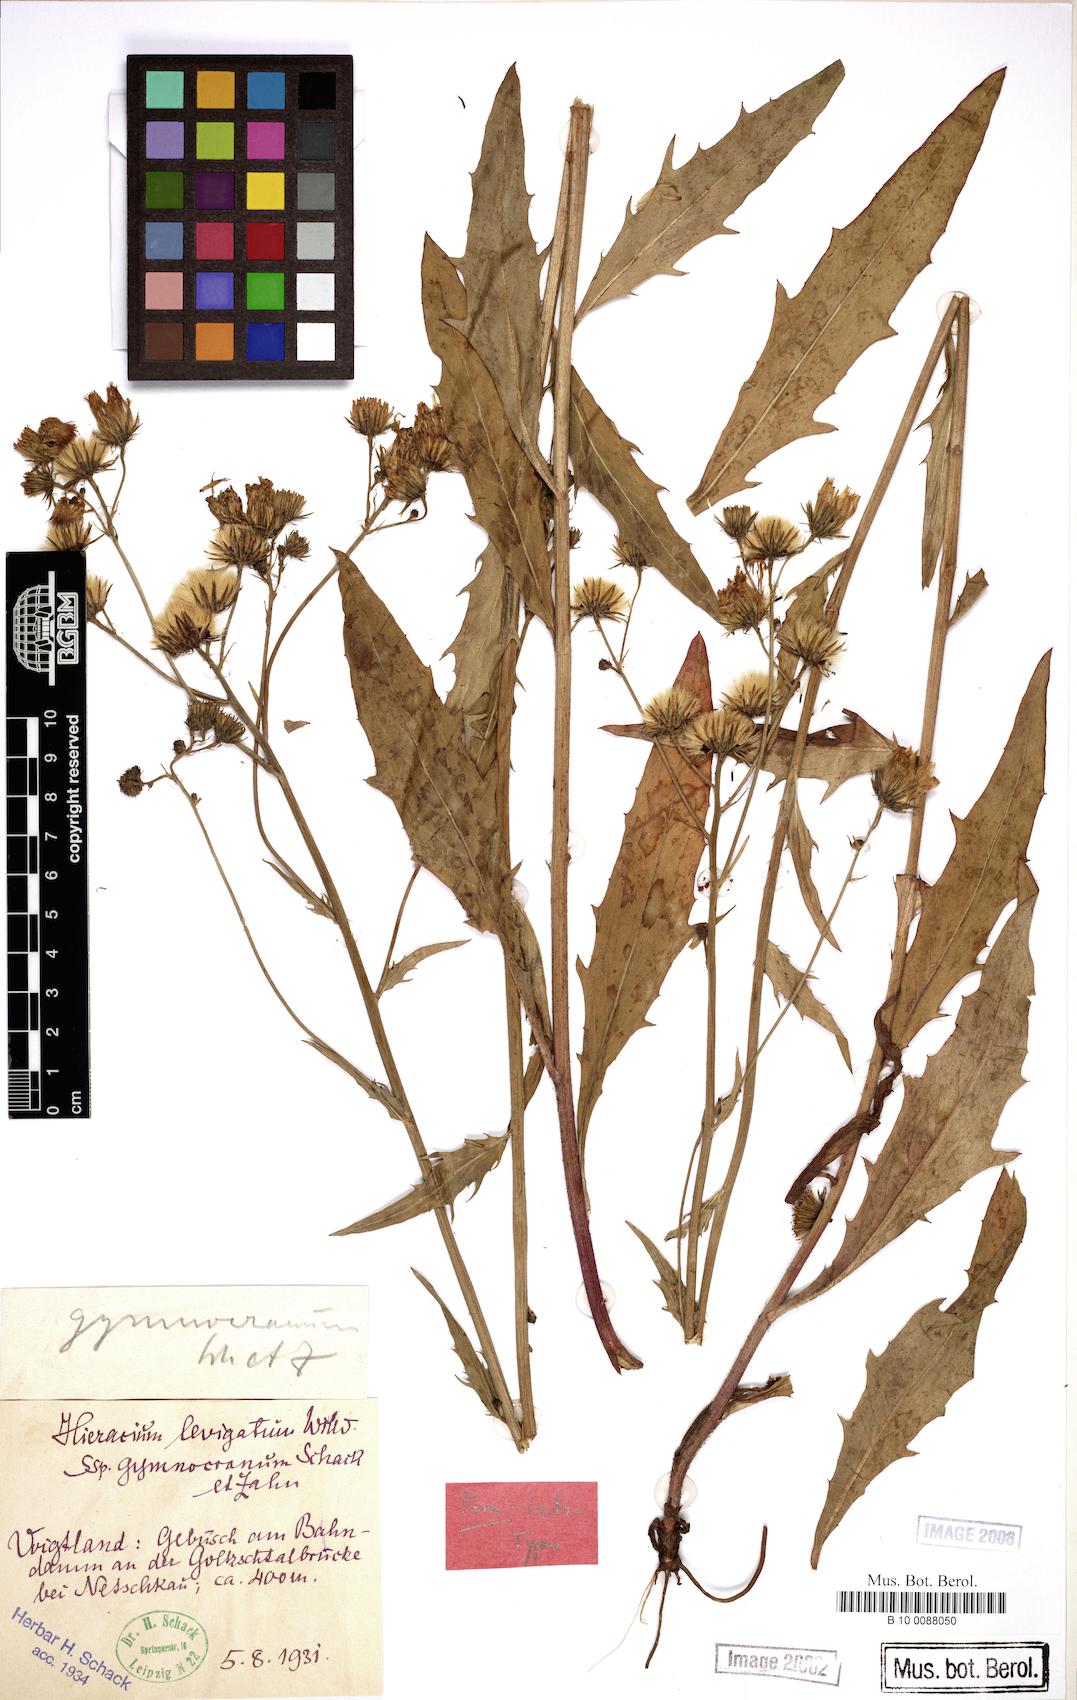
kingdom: Plantae
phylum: Tracheophyta
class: Magnoliopsida
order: Asterales
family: Asteraceae
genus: Hieracium
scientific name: Hieracium laevigatum
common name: Smooth hawkweed
